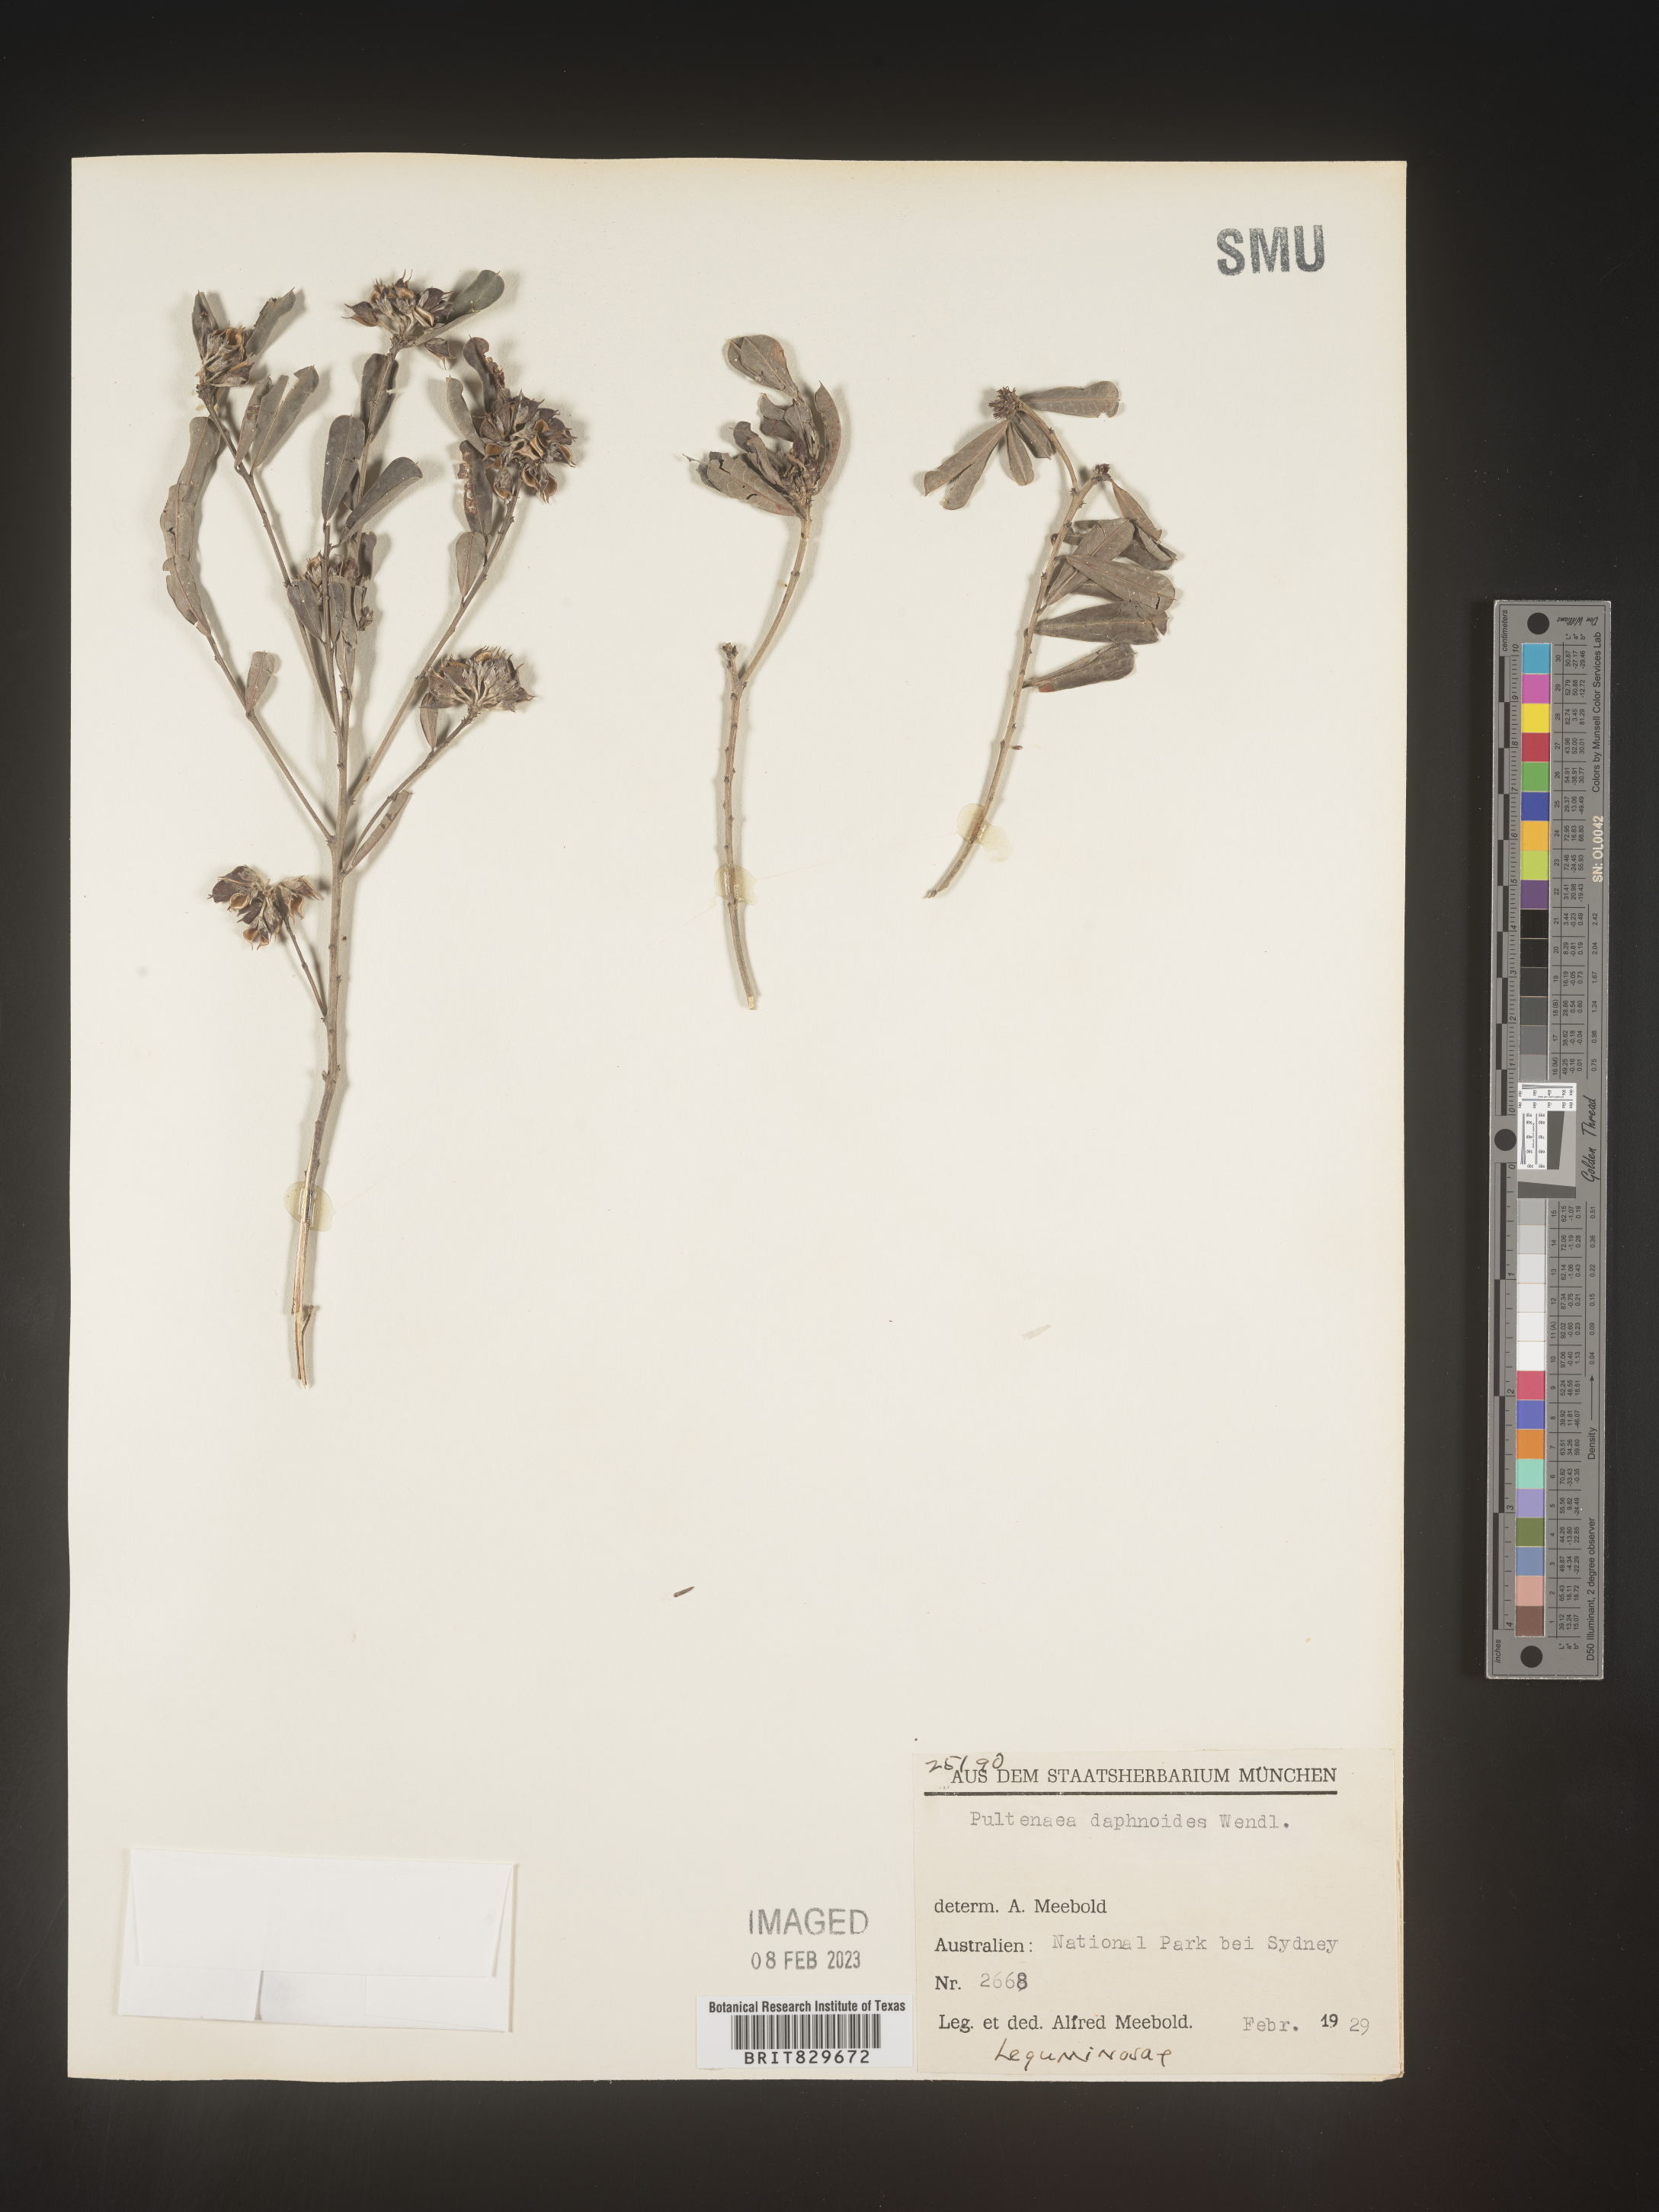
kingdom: Plantae
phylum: Tracheophyta
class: Magnoliopsida
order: Fabales
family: Fabaceae
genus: Pultenaea
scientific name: Pultenaea
